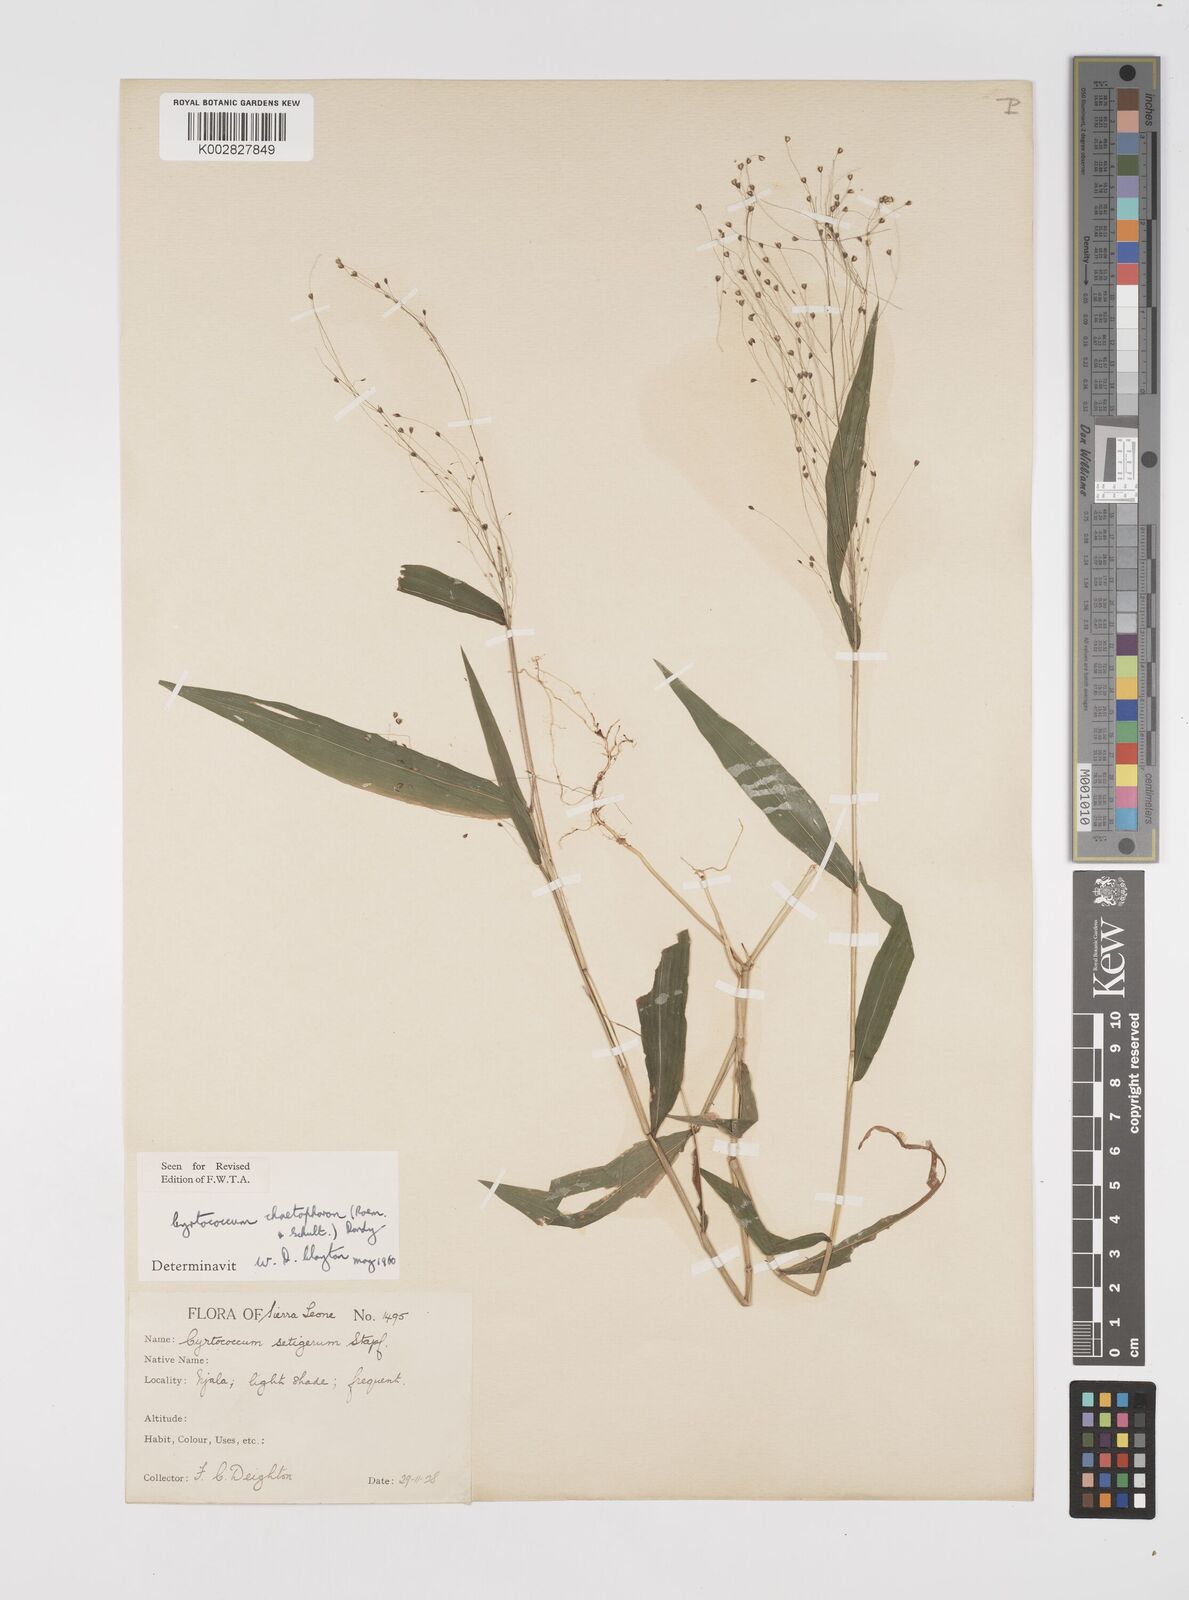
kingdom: Plantae
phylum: Tracheophyta
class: Liliopsida
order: Poales
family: Poaceae
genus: Cyrtococcum
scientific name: Cyrtococcum chaetophoron
